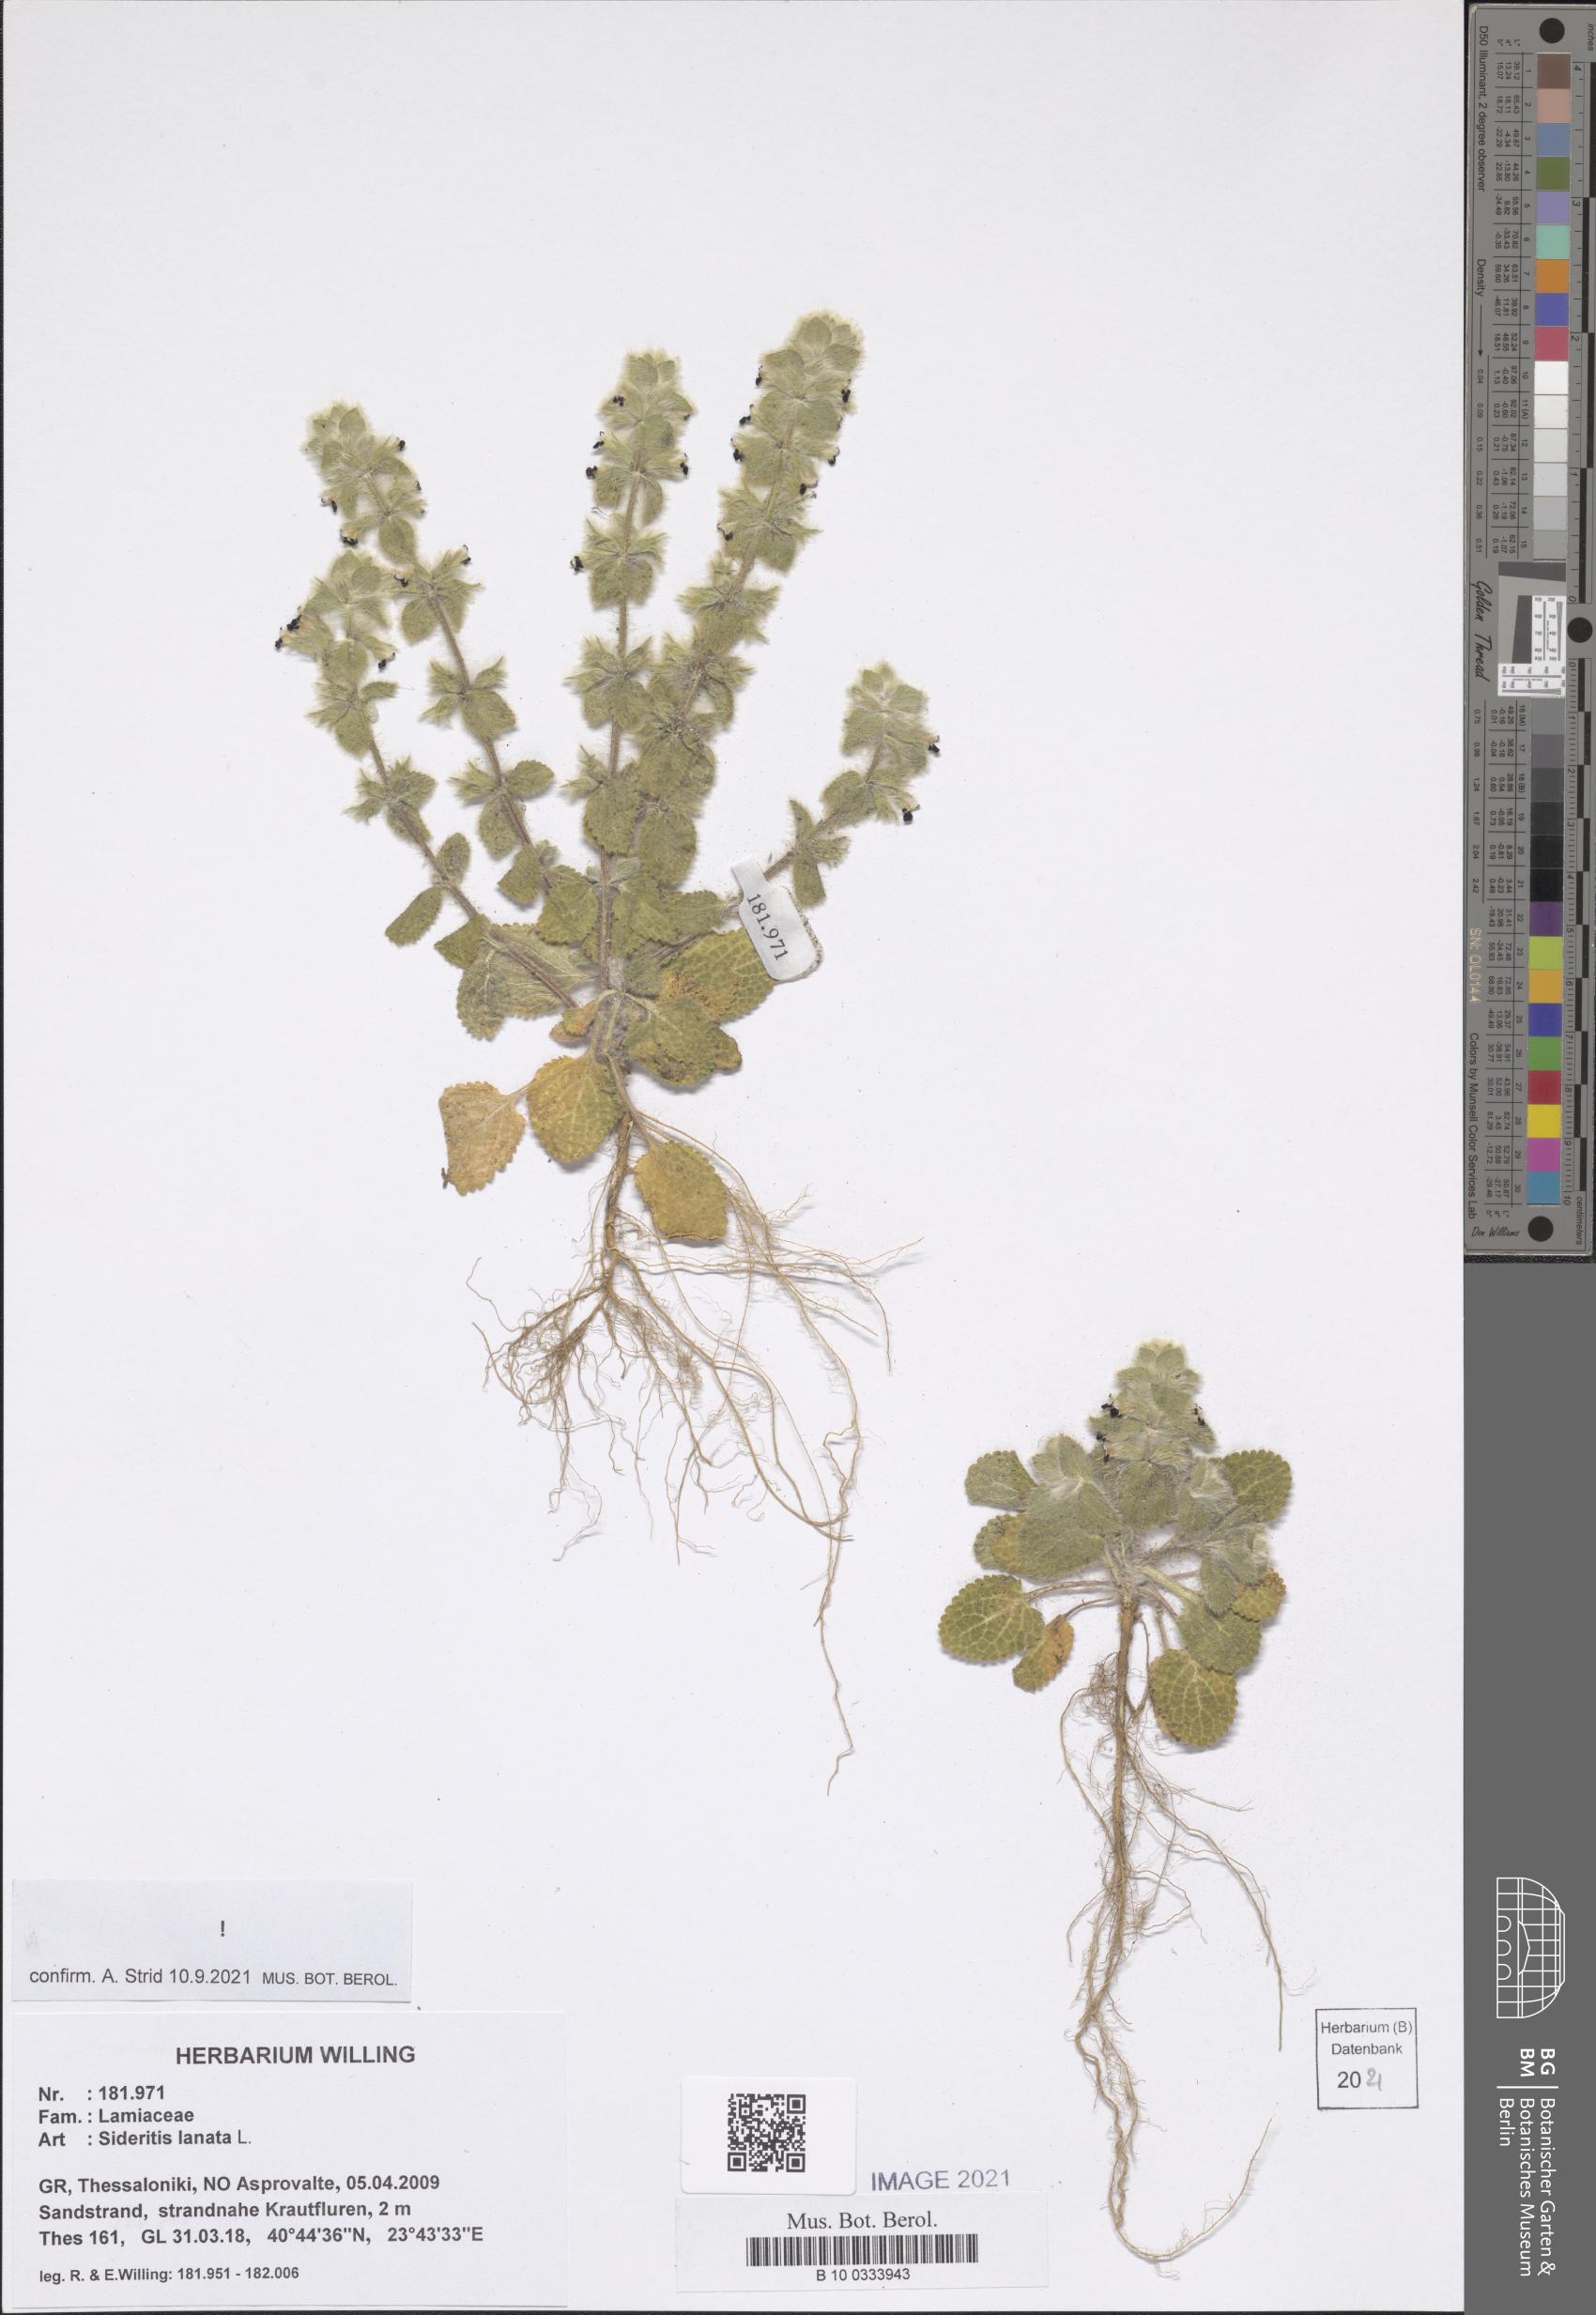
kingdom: Plantae
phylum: Tracheophyta
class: Magnoliopsida
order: Lamiales
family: Lamiaceae
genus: Sideritis
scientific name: Sideritis lanata
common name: Hairy ironwort
